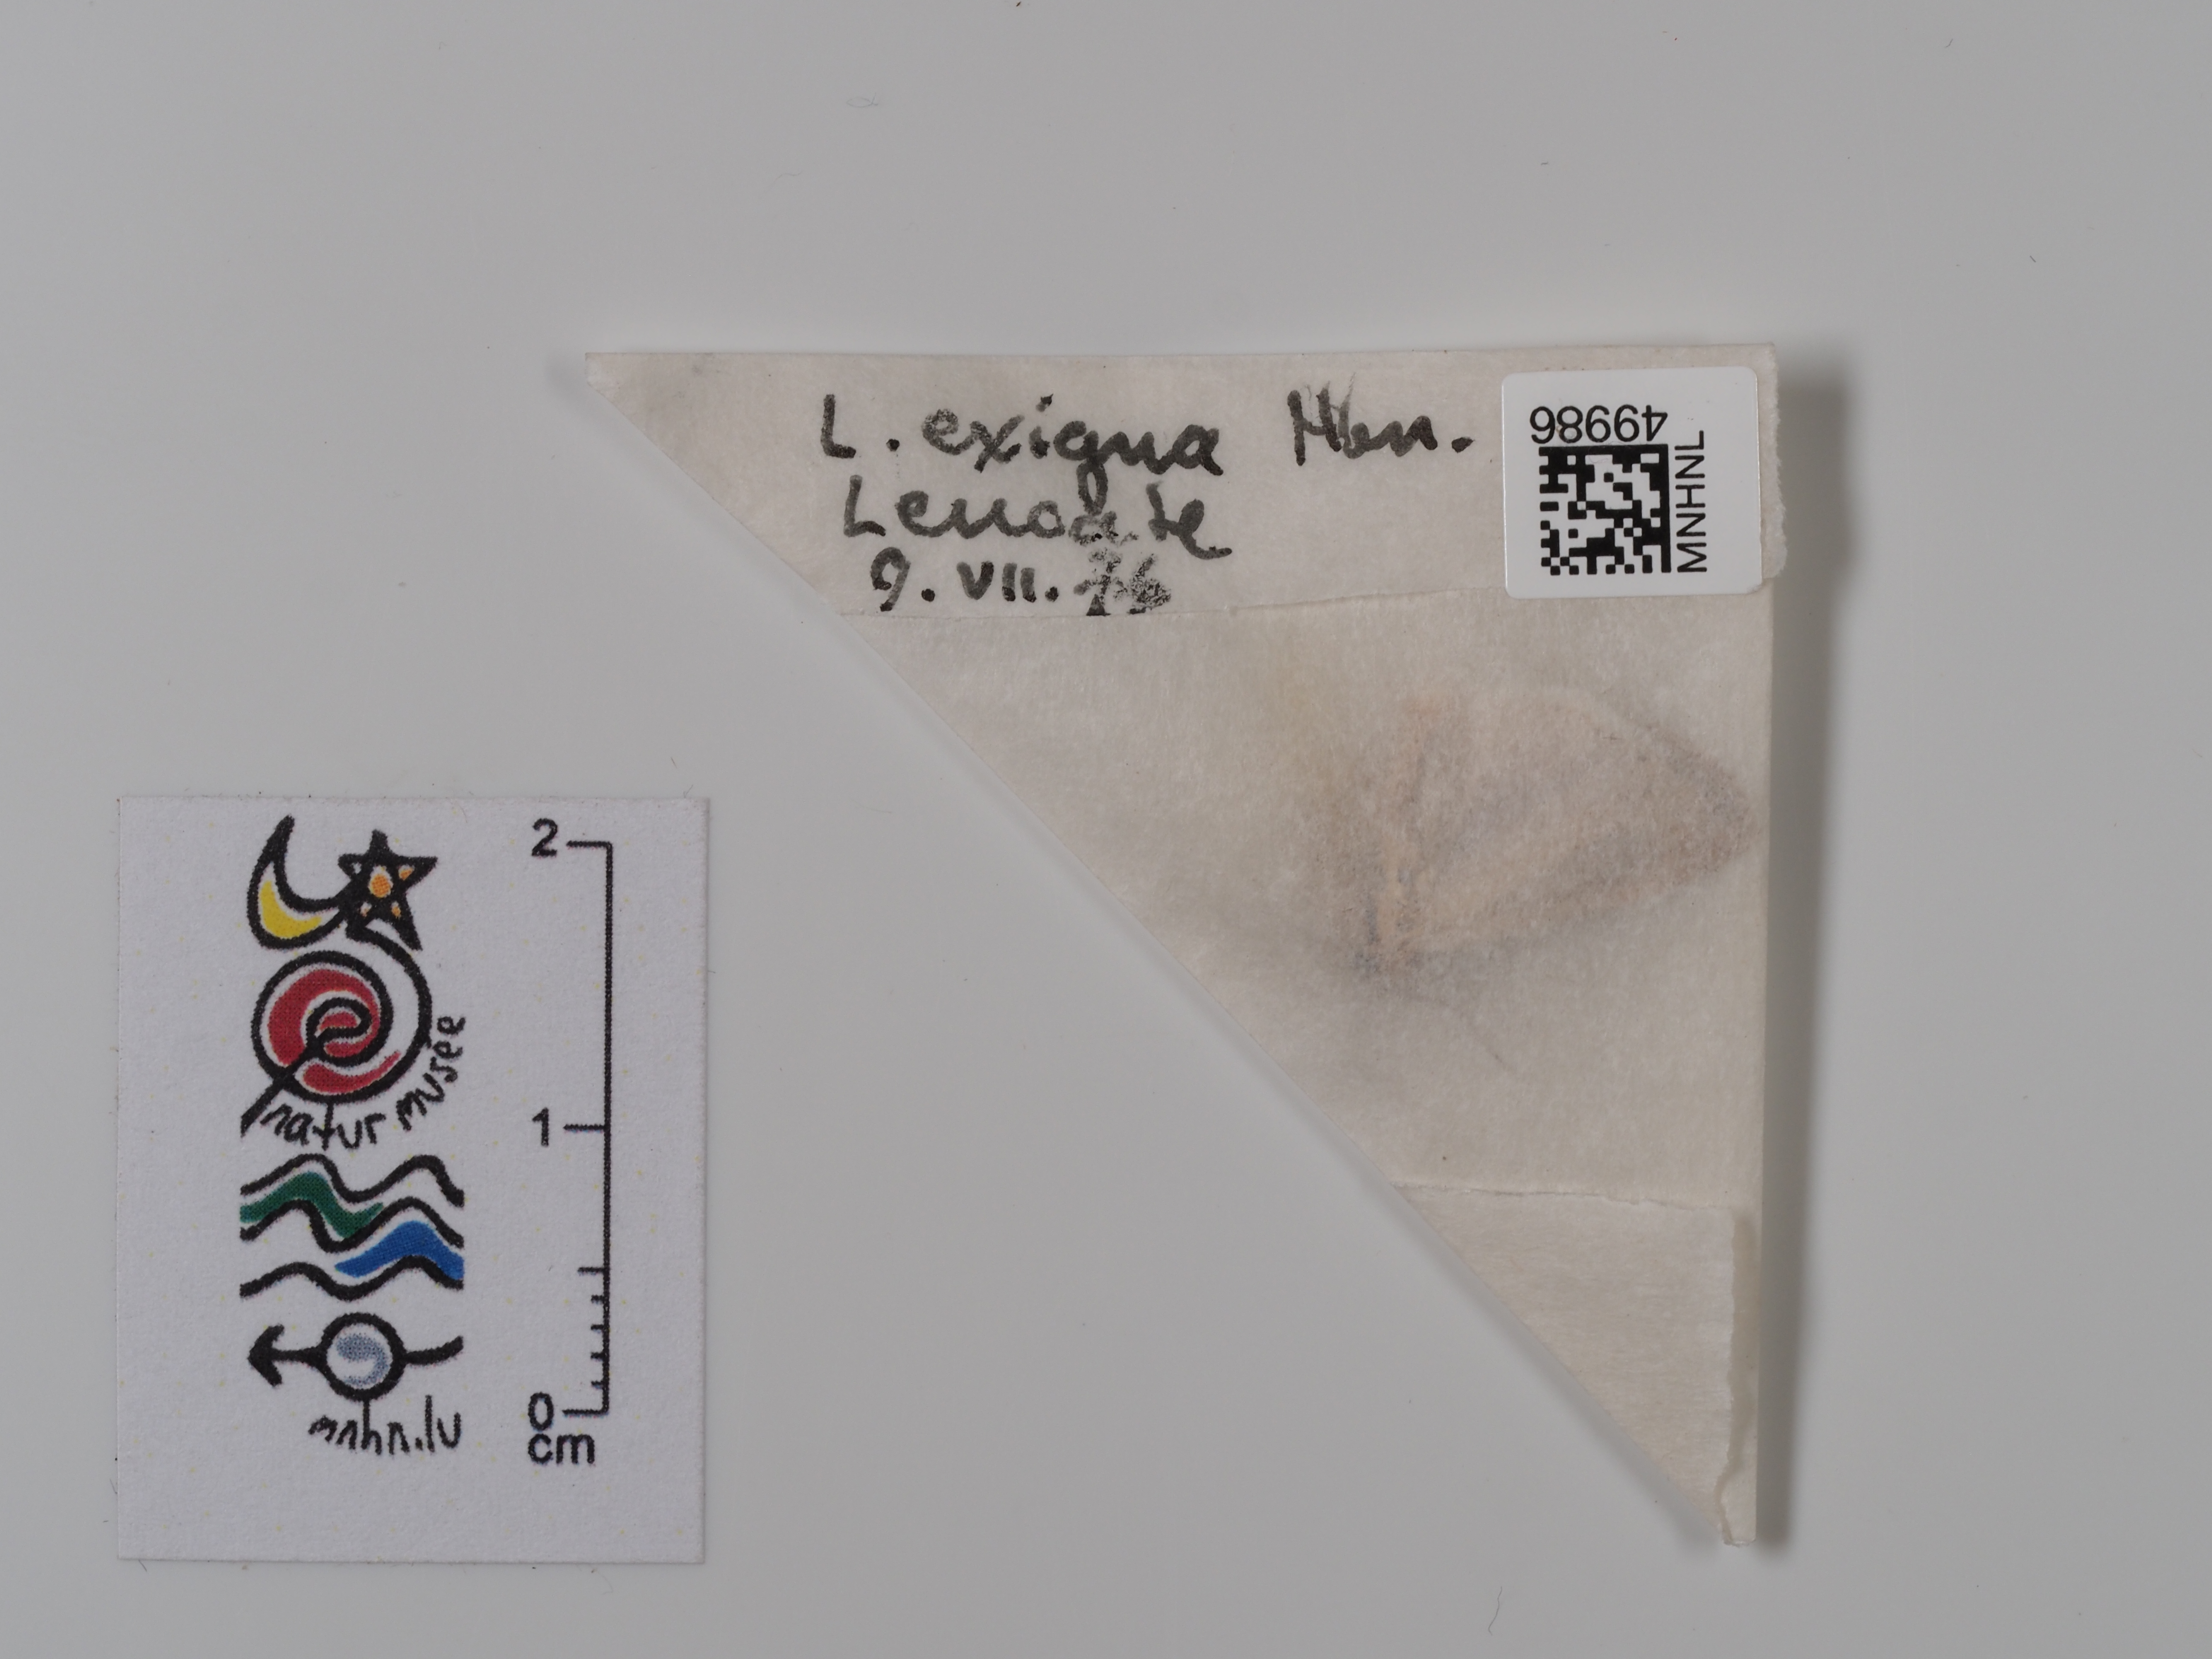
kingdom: Animalia
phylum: Arthropoda
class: Insecta
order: Lepidoptera
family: Noctuidae
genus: Spodoptera
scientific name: Spodoptera exigua
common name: Beet armyworm
